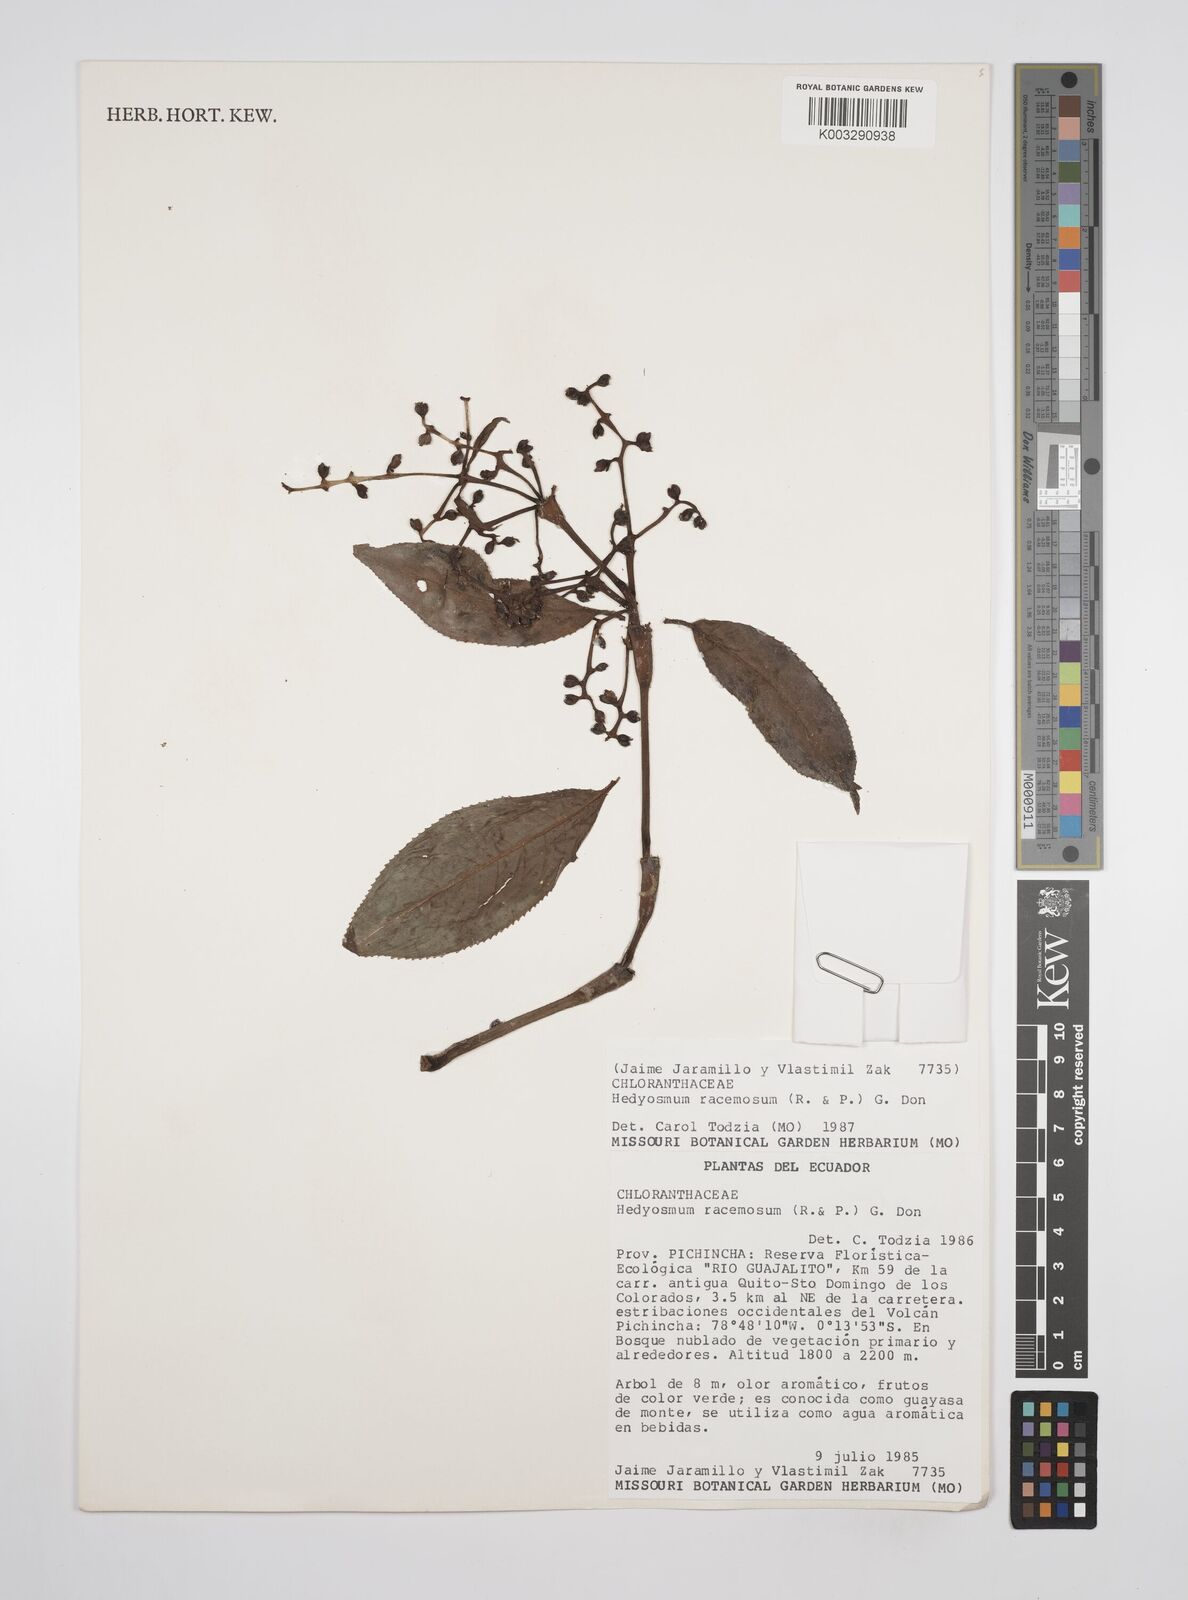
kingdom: Plantae
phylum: Tracheophyta
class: Magnoliopsida
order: Chloranthales
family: Chloranthaceae
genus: Hedyosmum
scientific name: Hedyosmum racemosum
